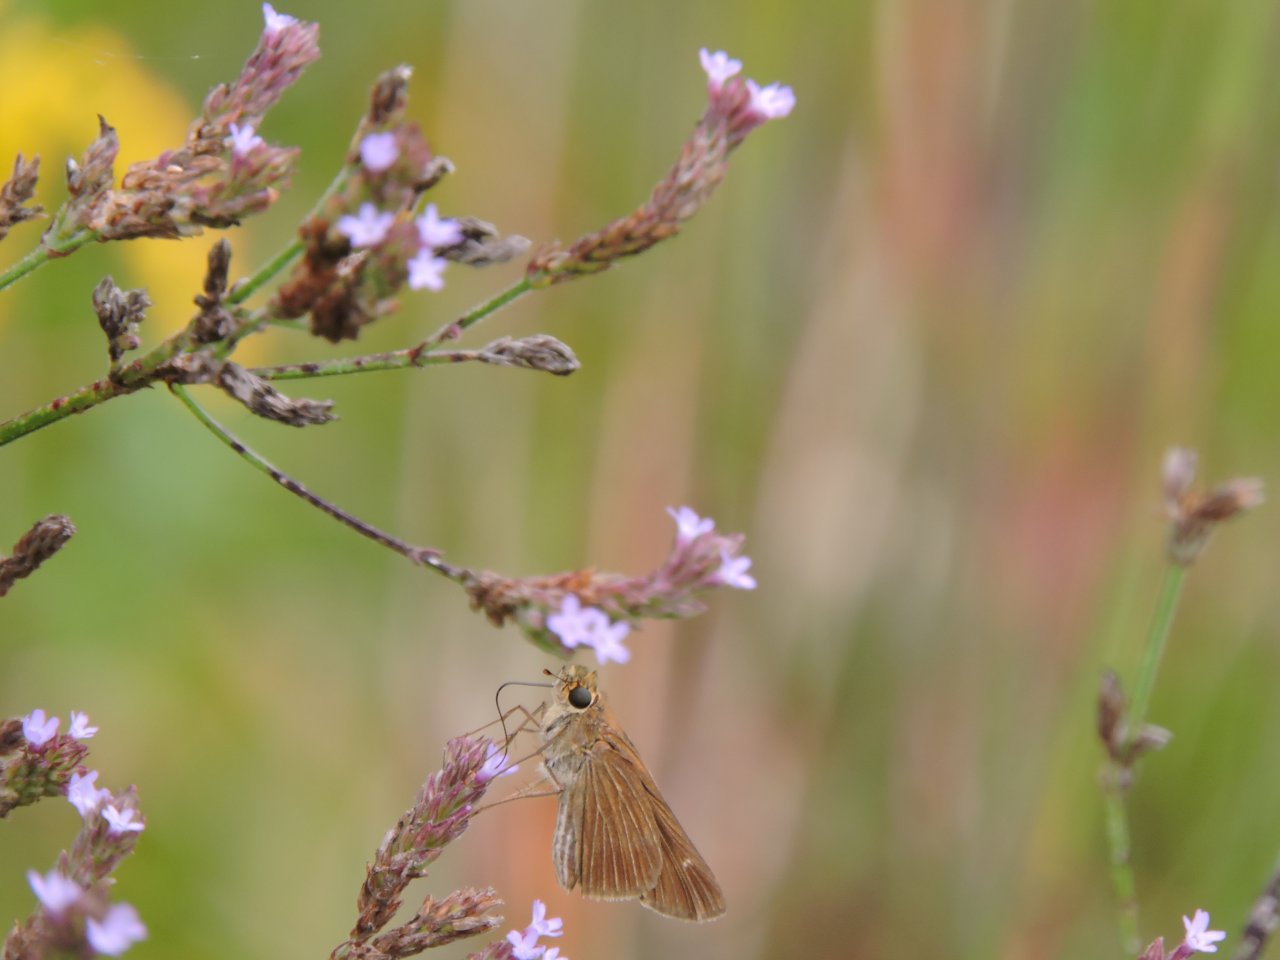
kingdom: Animalia
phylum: Arthropoda
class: Insecta
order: Lepidoptera
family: Hesperiidae
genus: Panoquina
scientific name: Panoquina ocola
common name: Ocola Skipper
